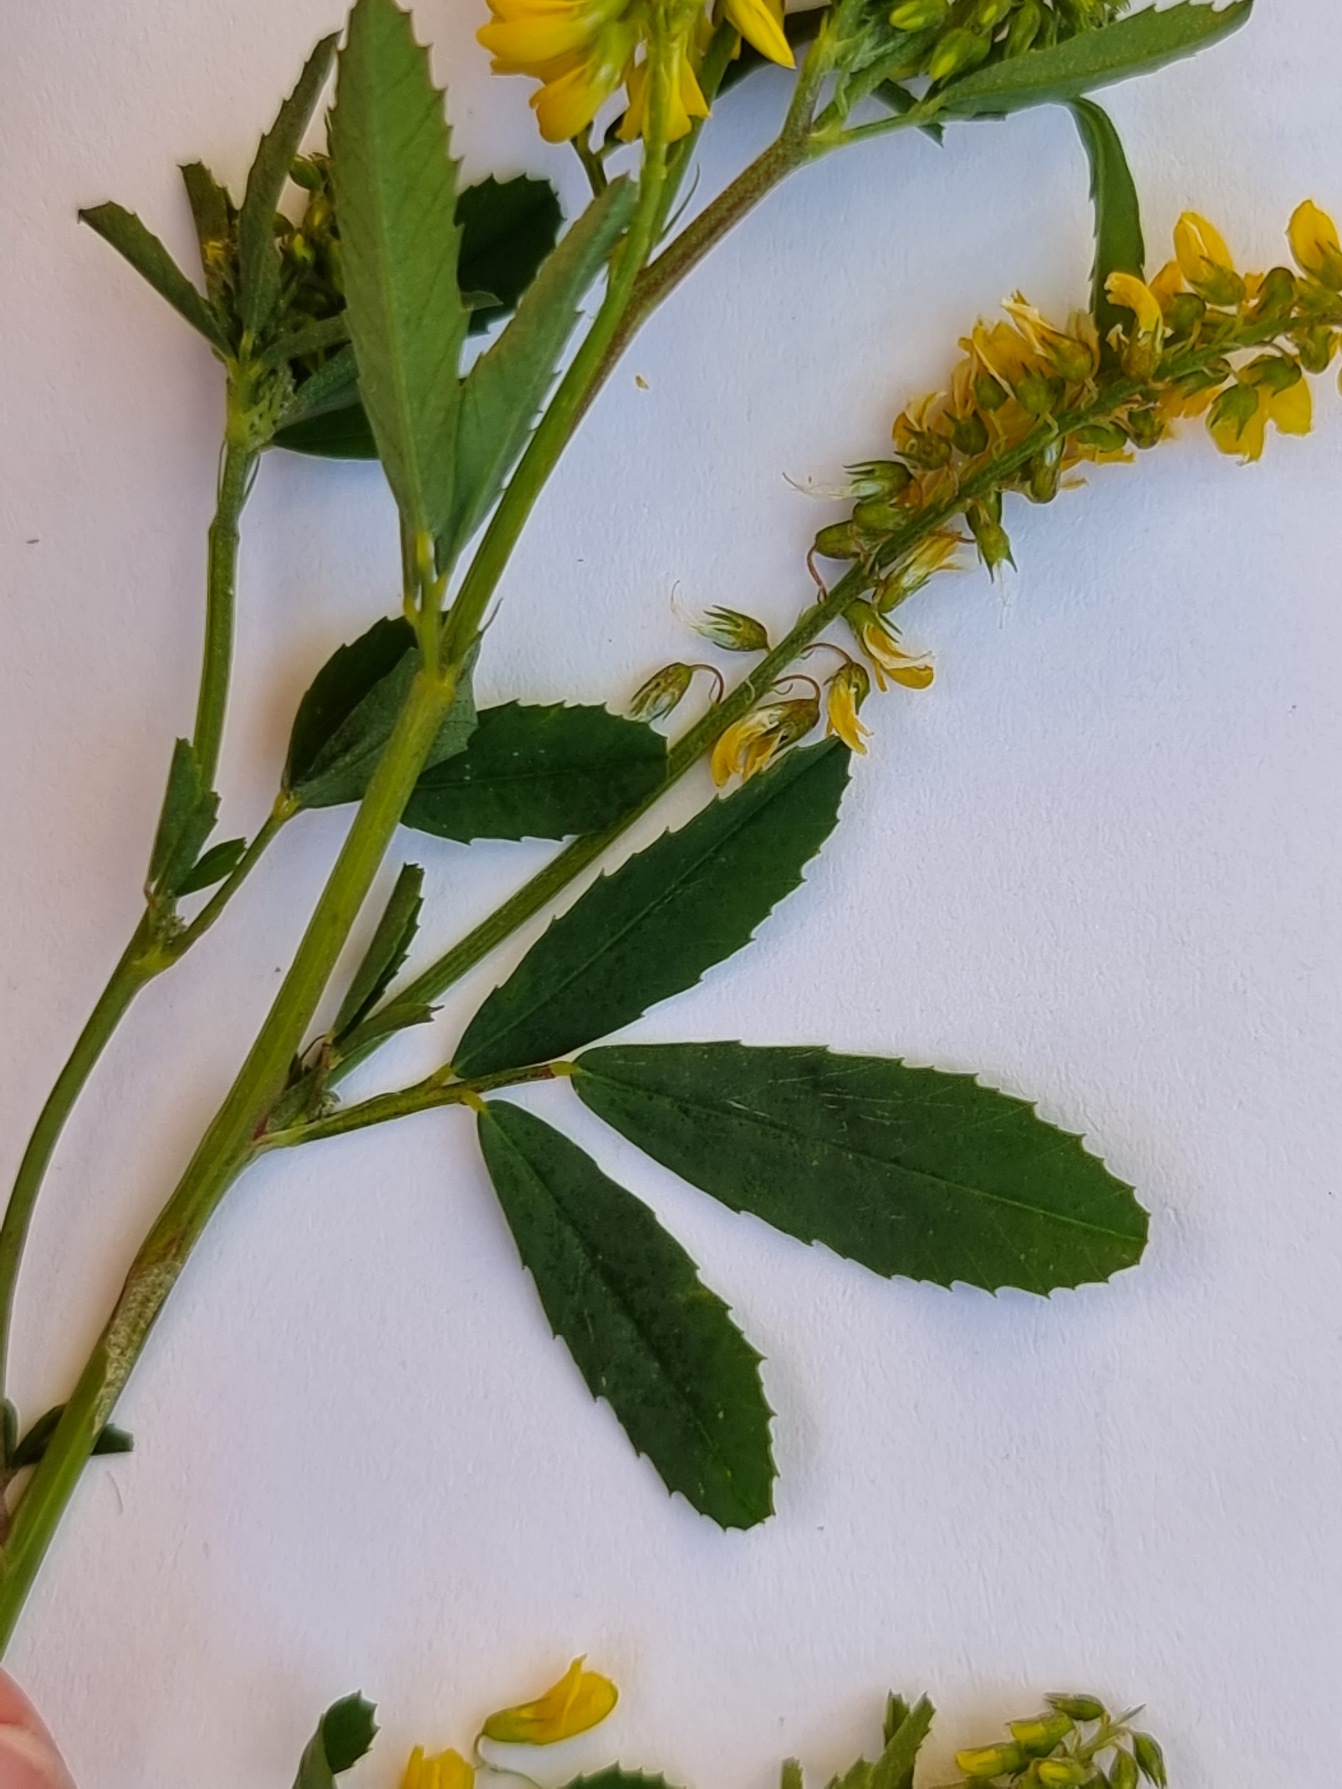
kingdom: Plantae
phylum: Tracheophyta
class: Magnoliopsida
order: Fabales
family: Fabaceae
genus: Melilotus
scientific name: Melilotus altissimus
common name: Høj stenkløver
